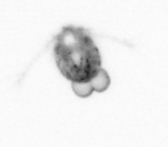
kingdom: Animalia
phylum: Arthropoda
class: Copepoda
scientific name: Copepoda
